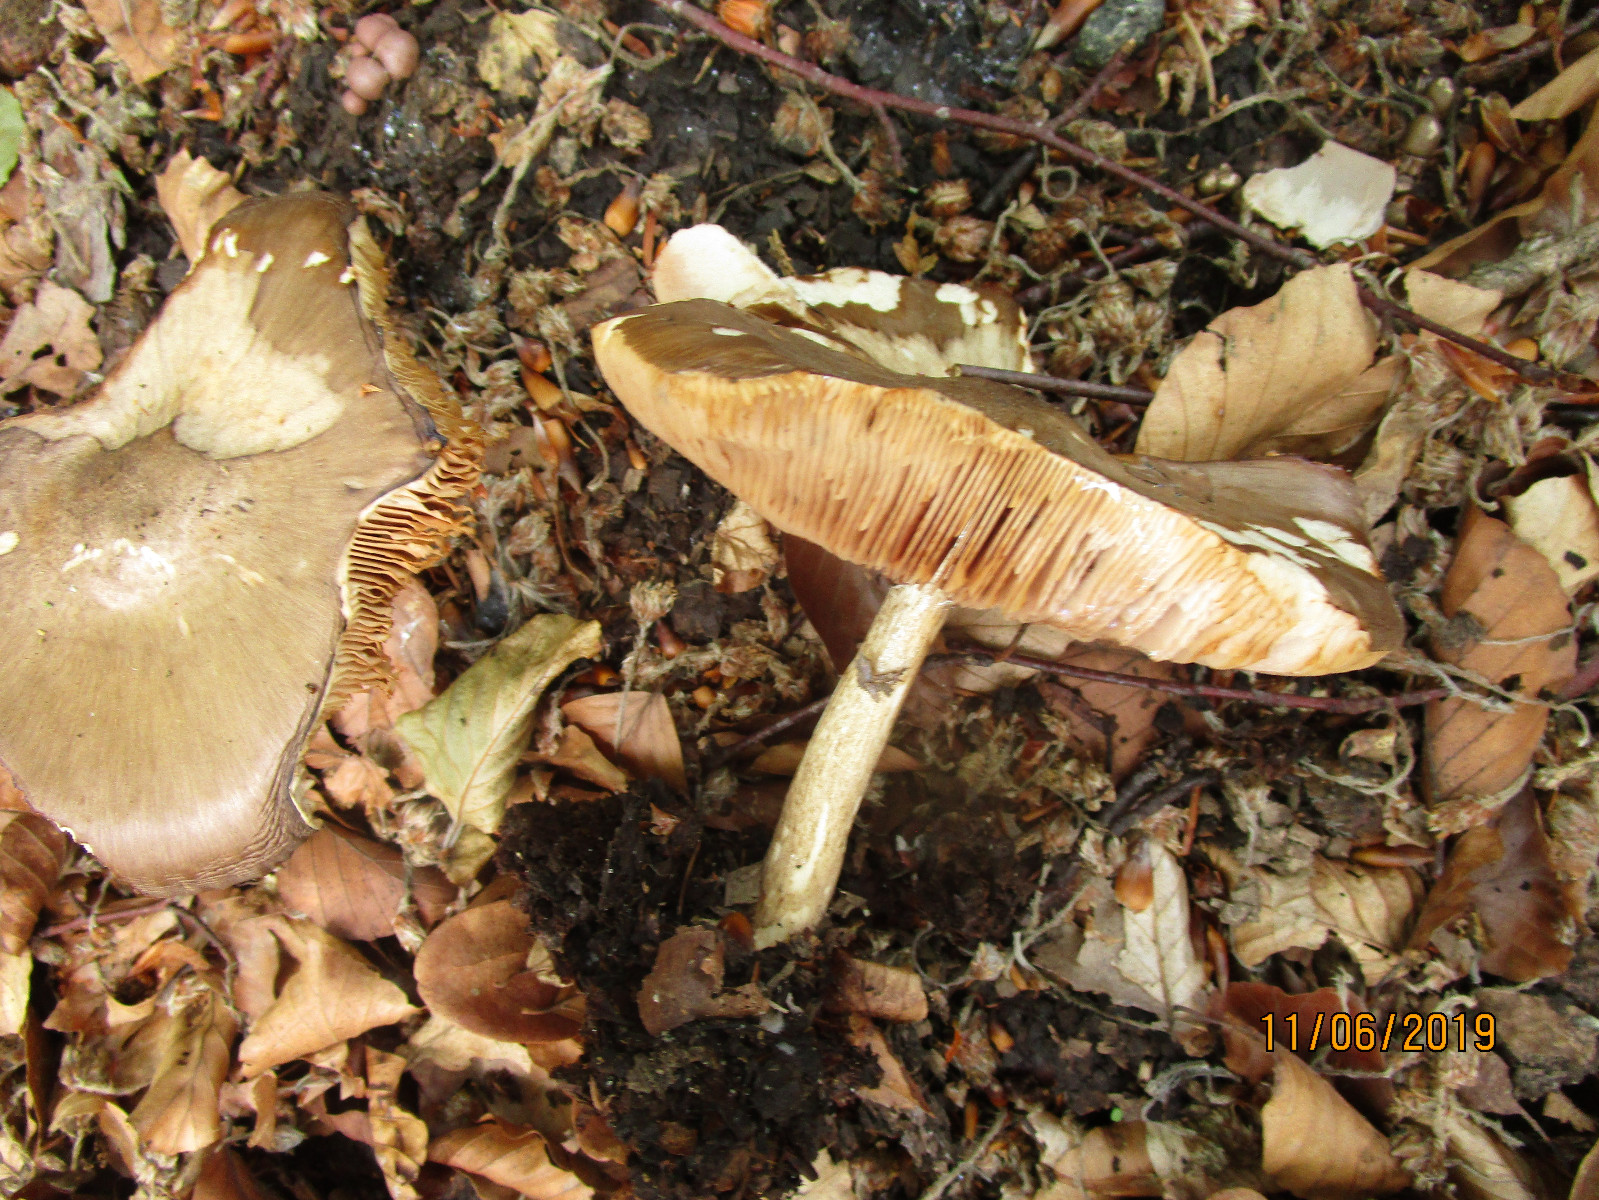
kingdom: Fungi
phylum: Basidiomycota
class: Agaricomycetes
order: Agaricales
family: Pluteaceae
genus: Pluteus
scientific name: Pluteus cervinus
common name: sodfarvet skærmhat
